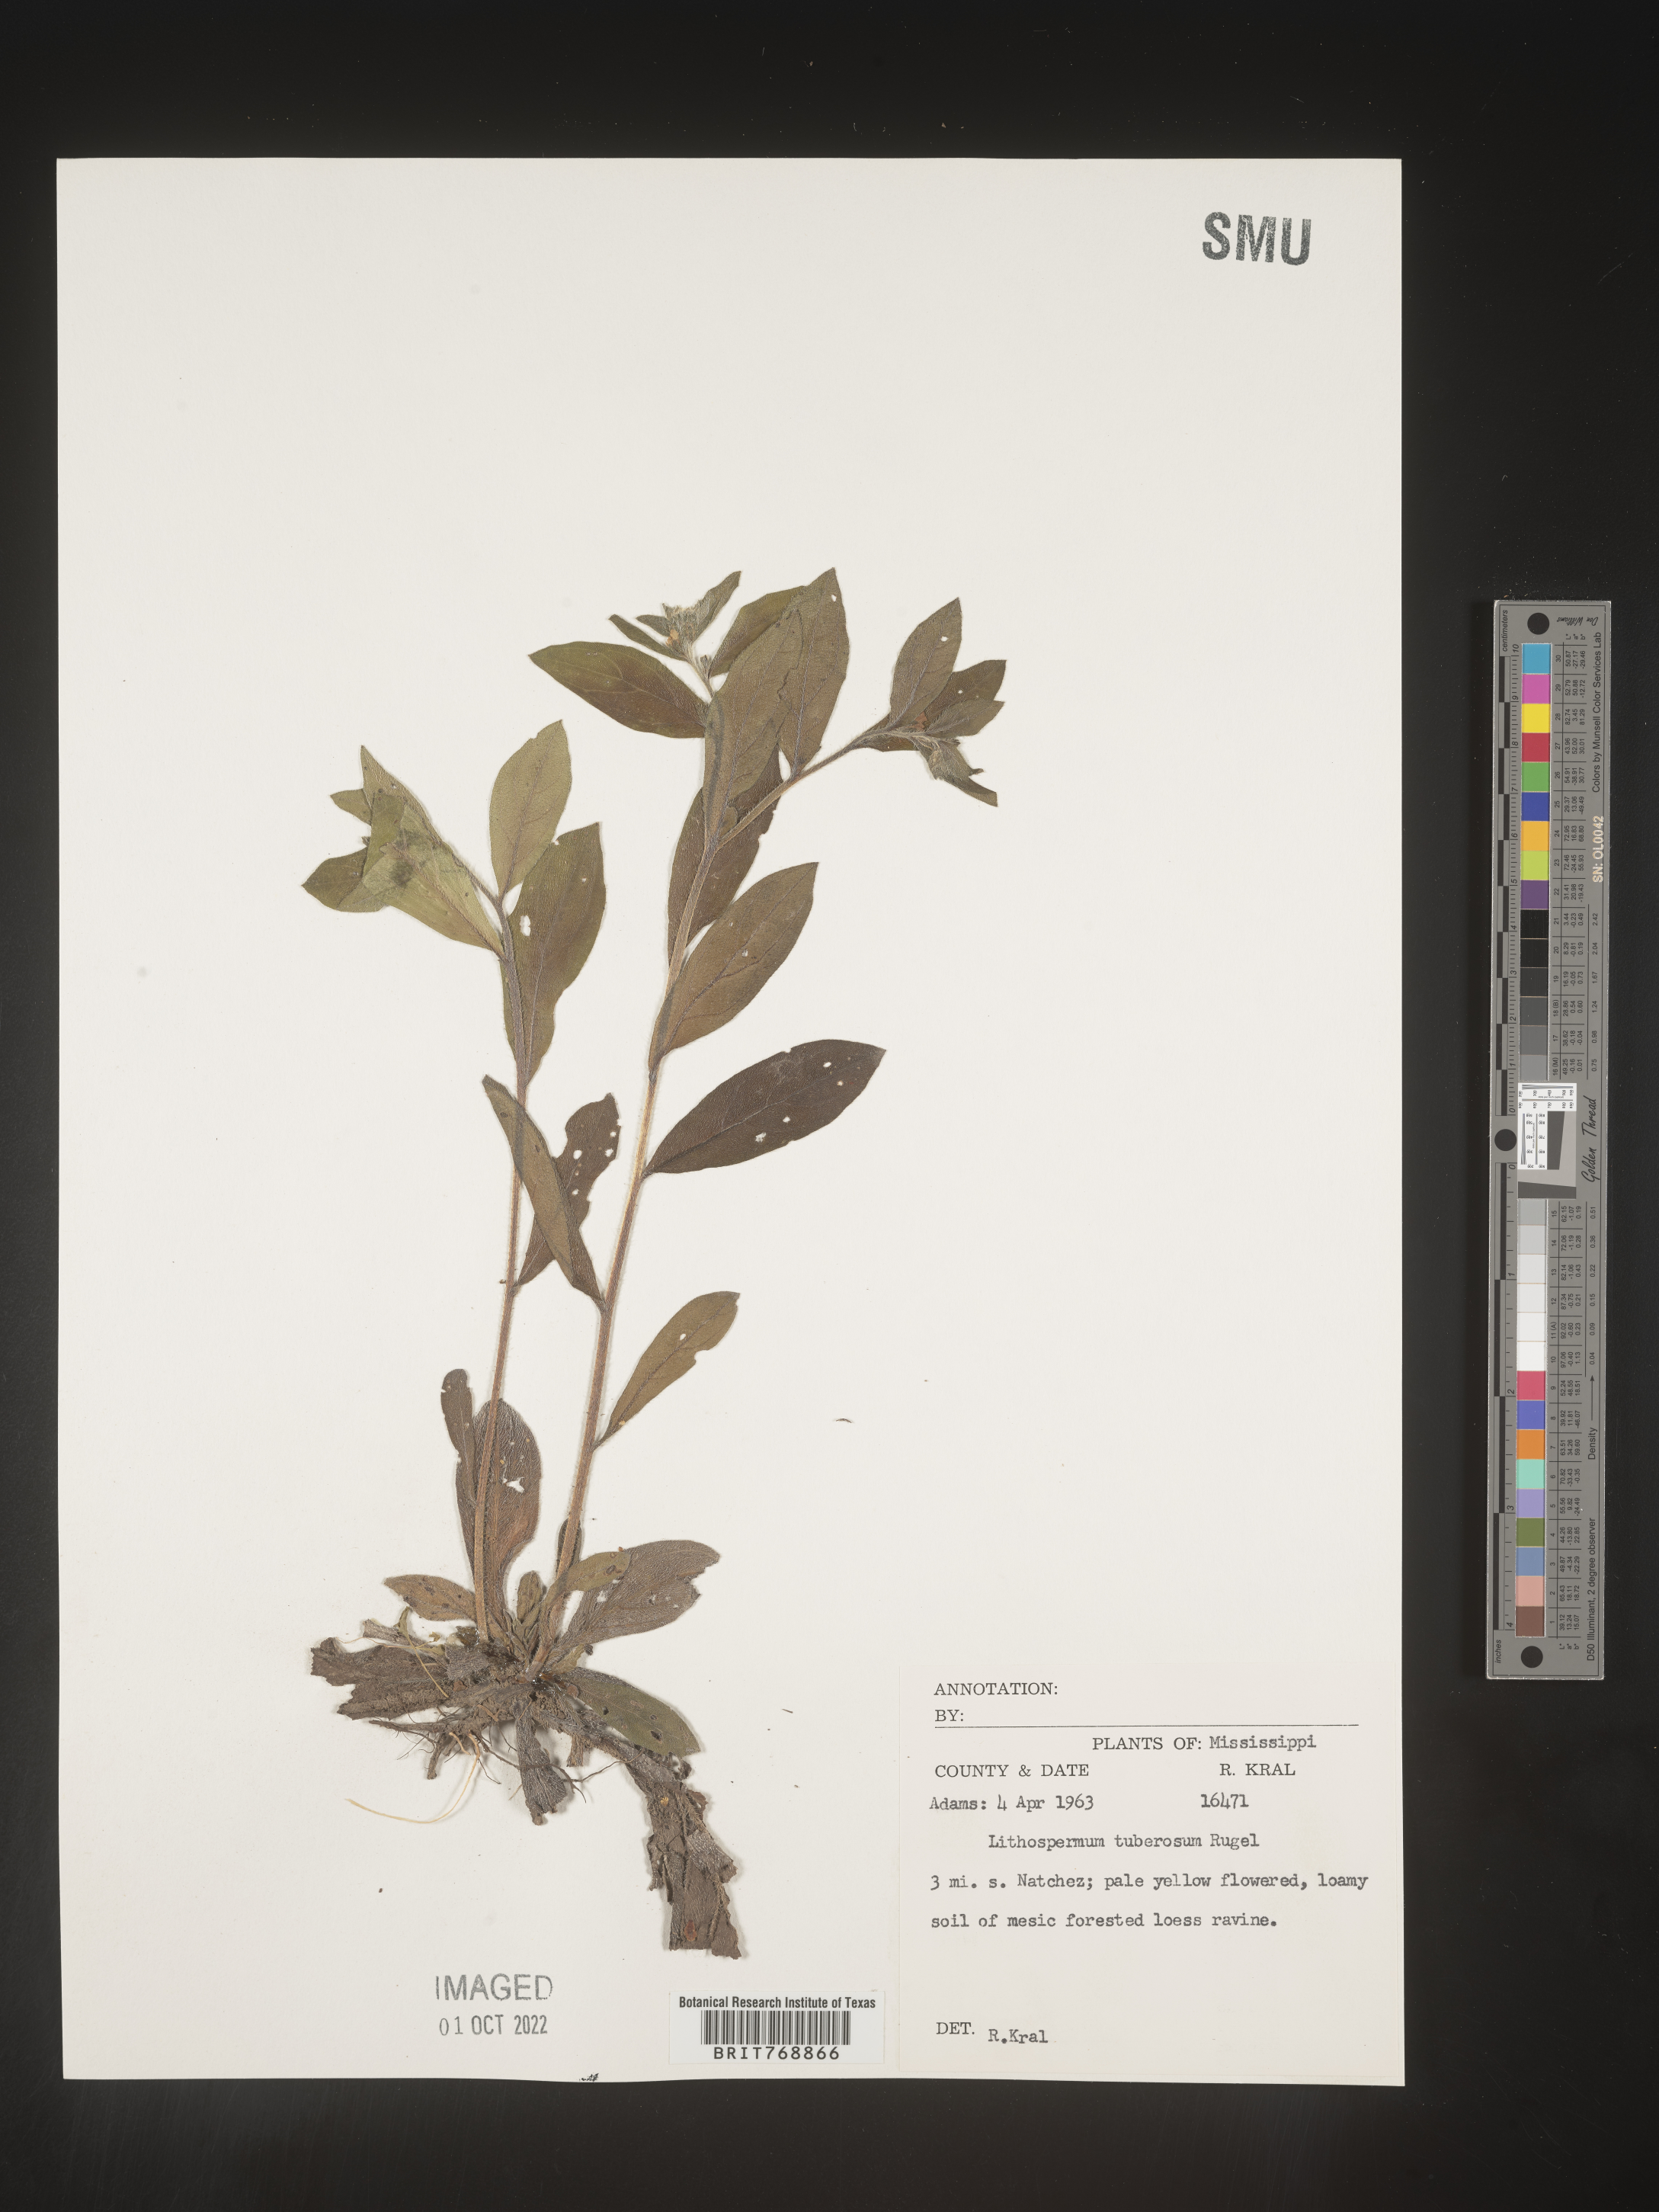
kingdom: Plantae
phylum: Tracheophyta
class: Magnoliopsida
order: Boraginales
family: Boraginaceae
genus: Lithospermum
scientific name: Lithospermum
